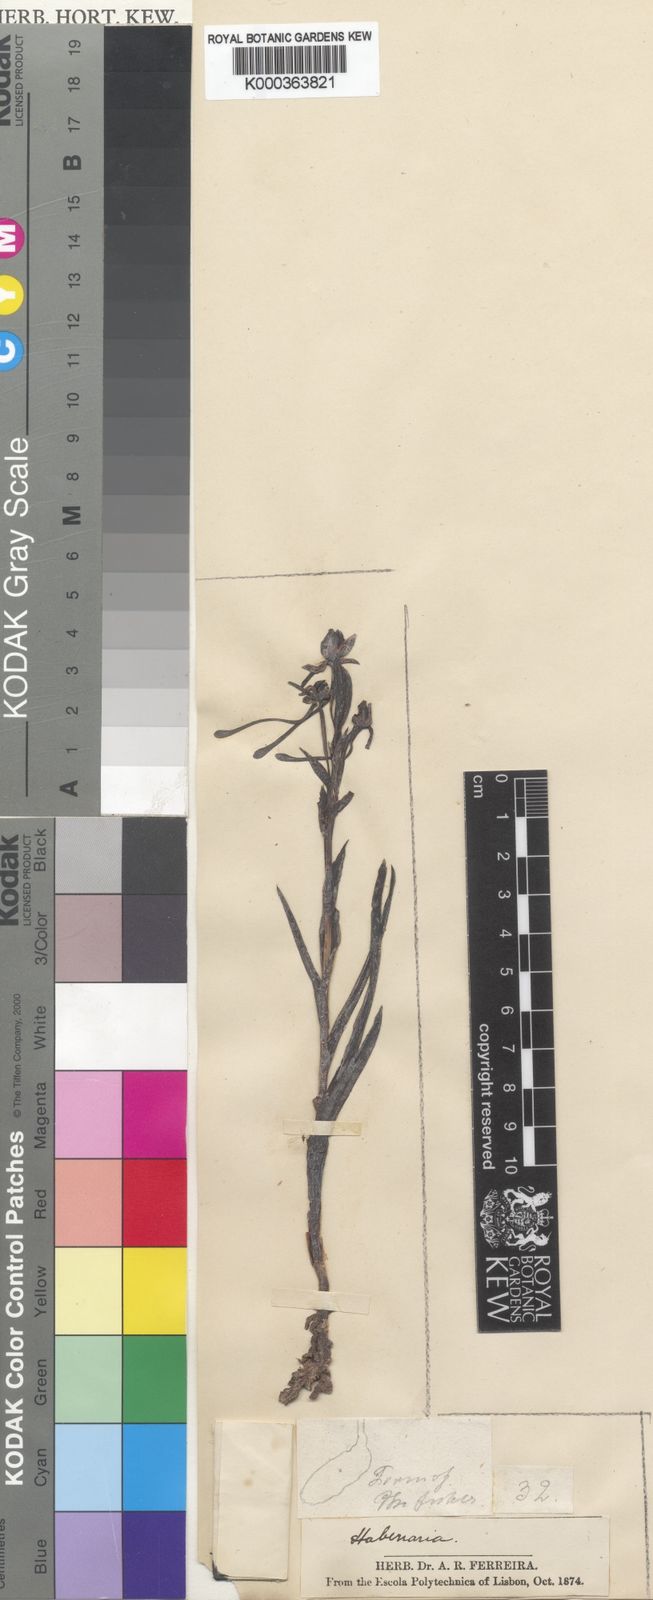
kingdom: Plantae
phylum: Tracheophyta
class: Liliopsida
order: Asparagales
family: Orchidaceae
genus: Habenaria
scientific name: Habenaria candolleana
